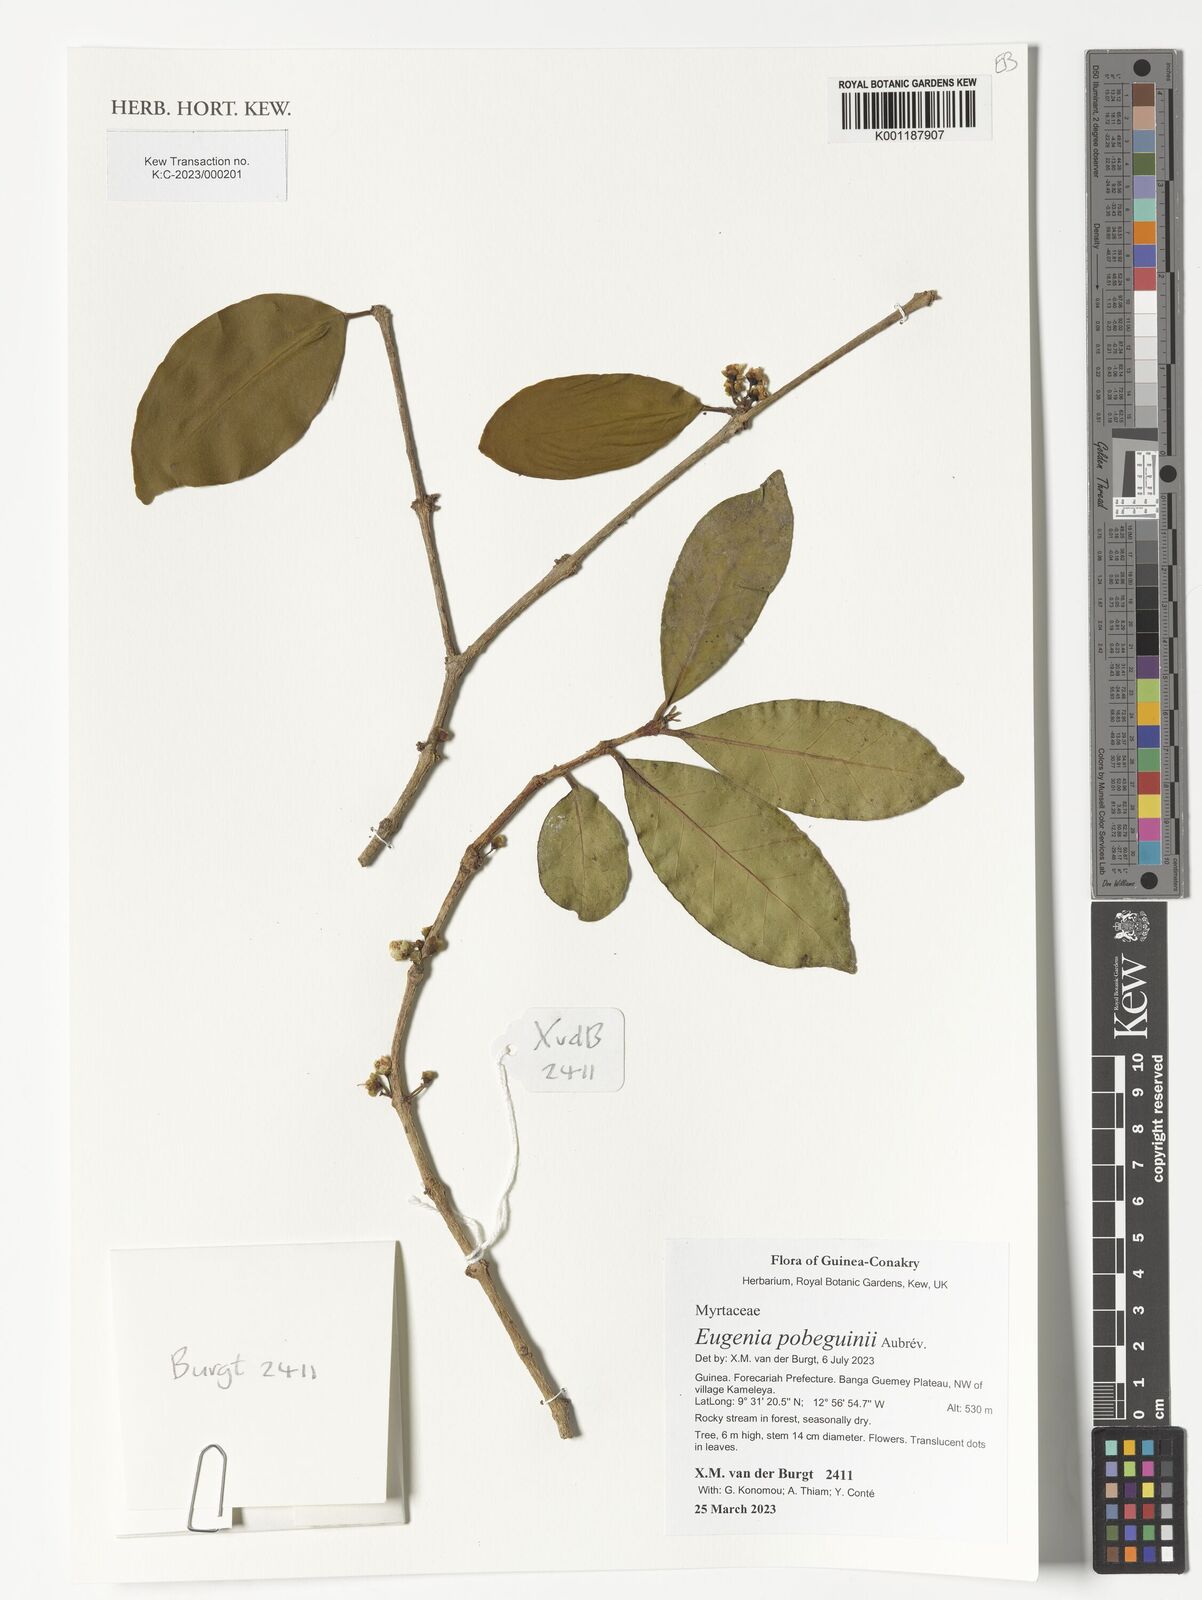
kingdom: Plantae
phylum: Tracheophyta
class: Magnoliopsida
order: Myrtales
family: Myrtaceae
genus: Eugenia
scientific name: Eugenia pobeguinii
